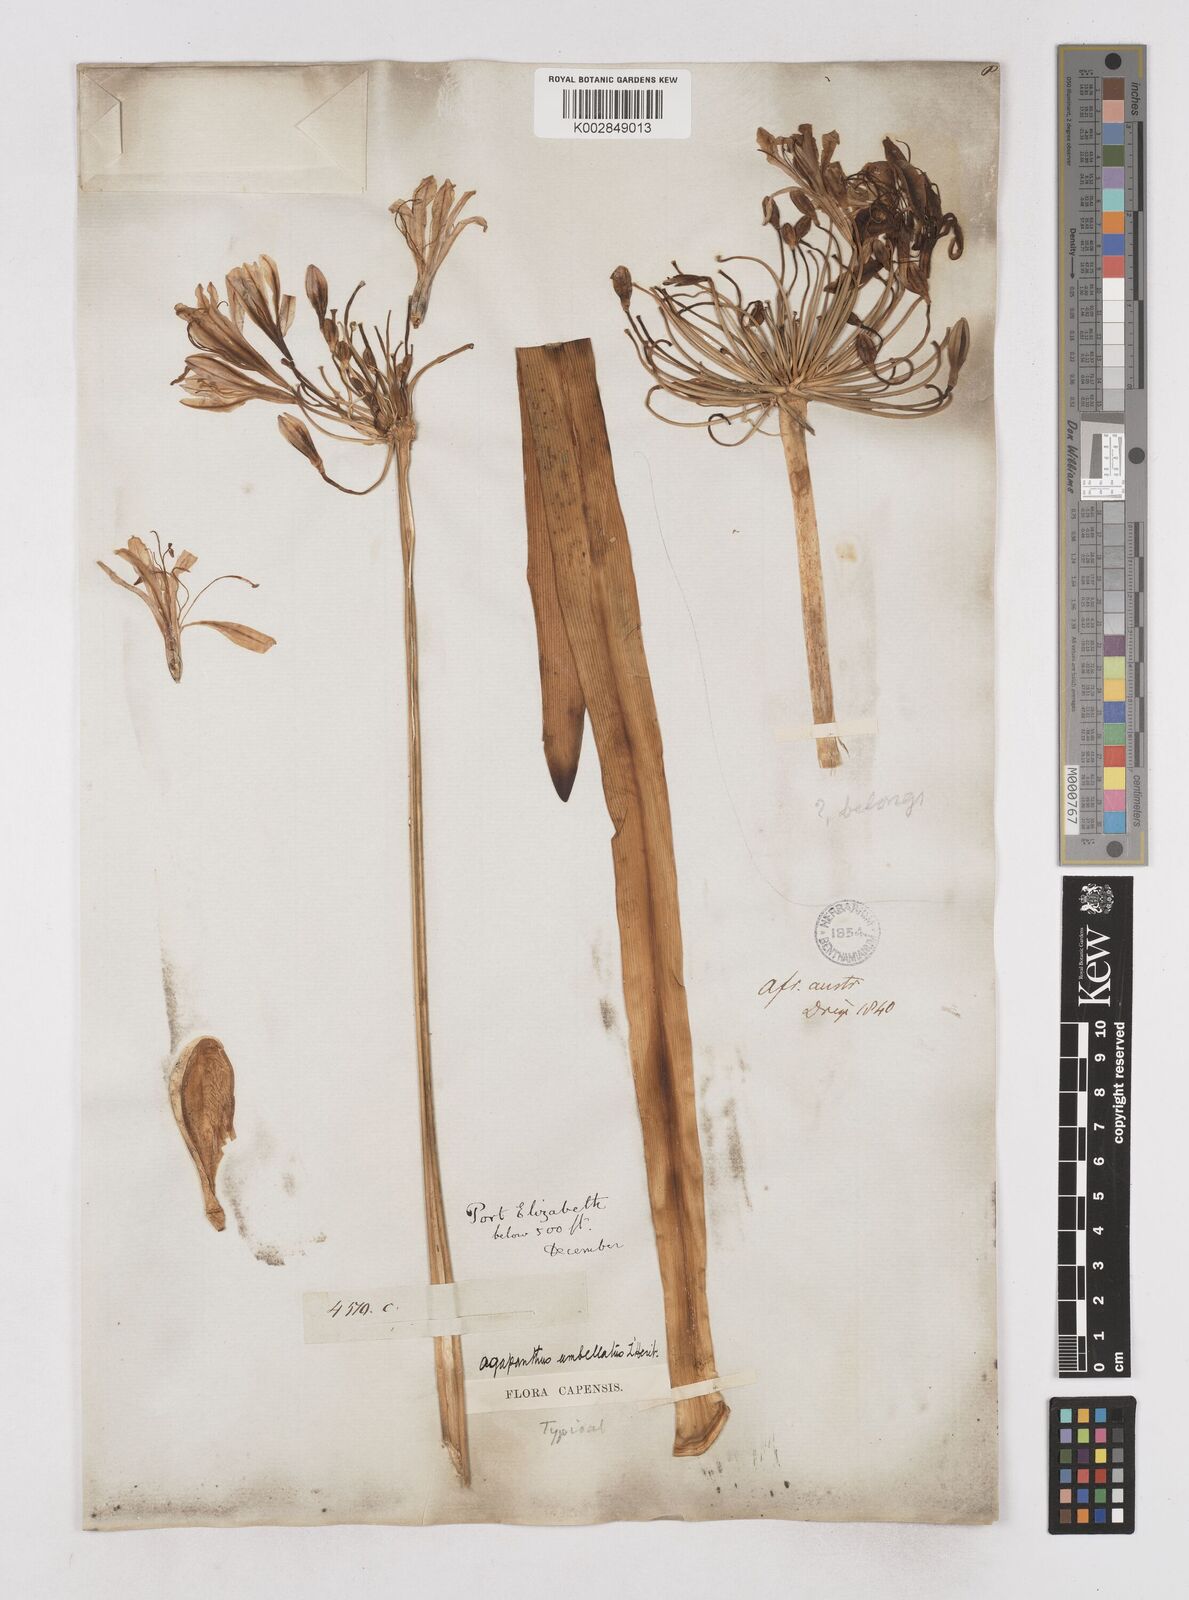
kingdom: Plantae
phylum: Tracheophyta
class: Liliopsida
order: Asparagales
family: Amaryllidaceae
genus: Agapanthus
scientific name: Agapanthus africanus
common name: Lily-of-the-nile
